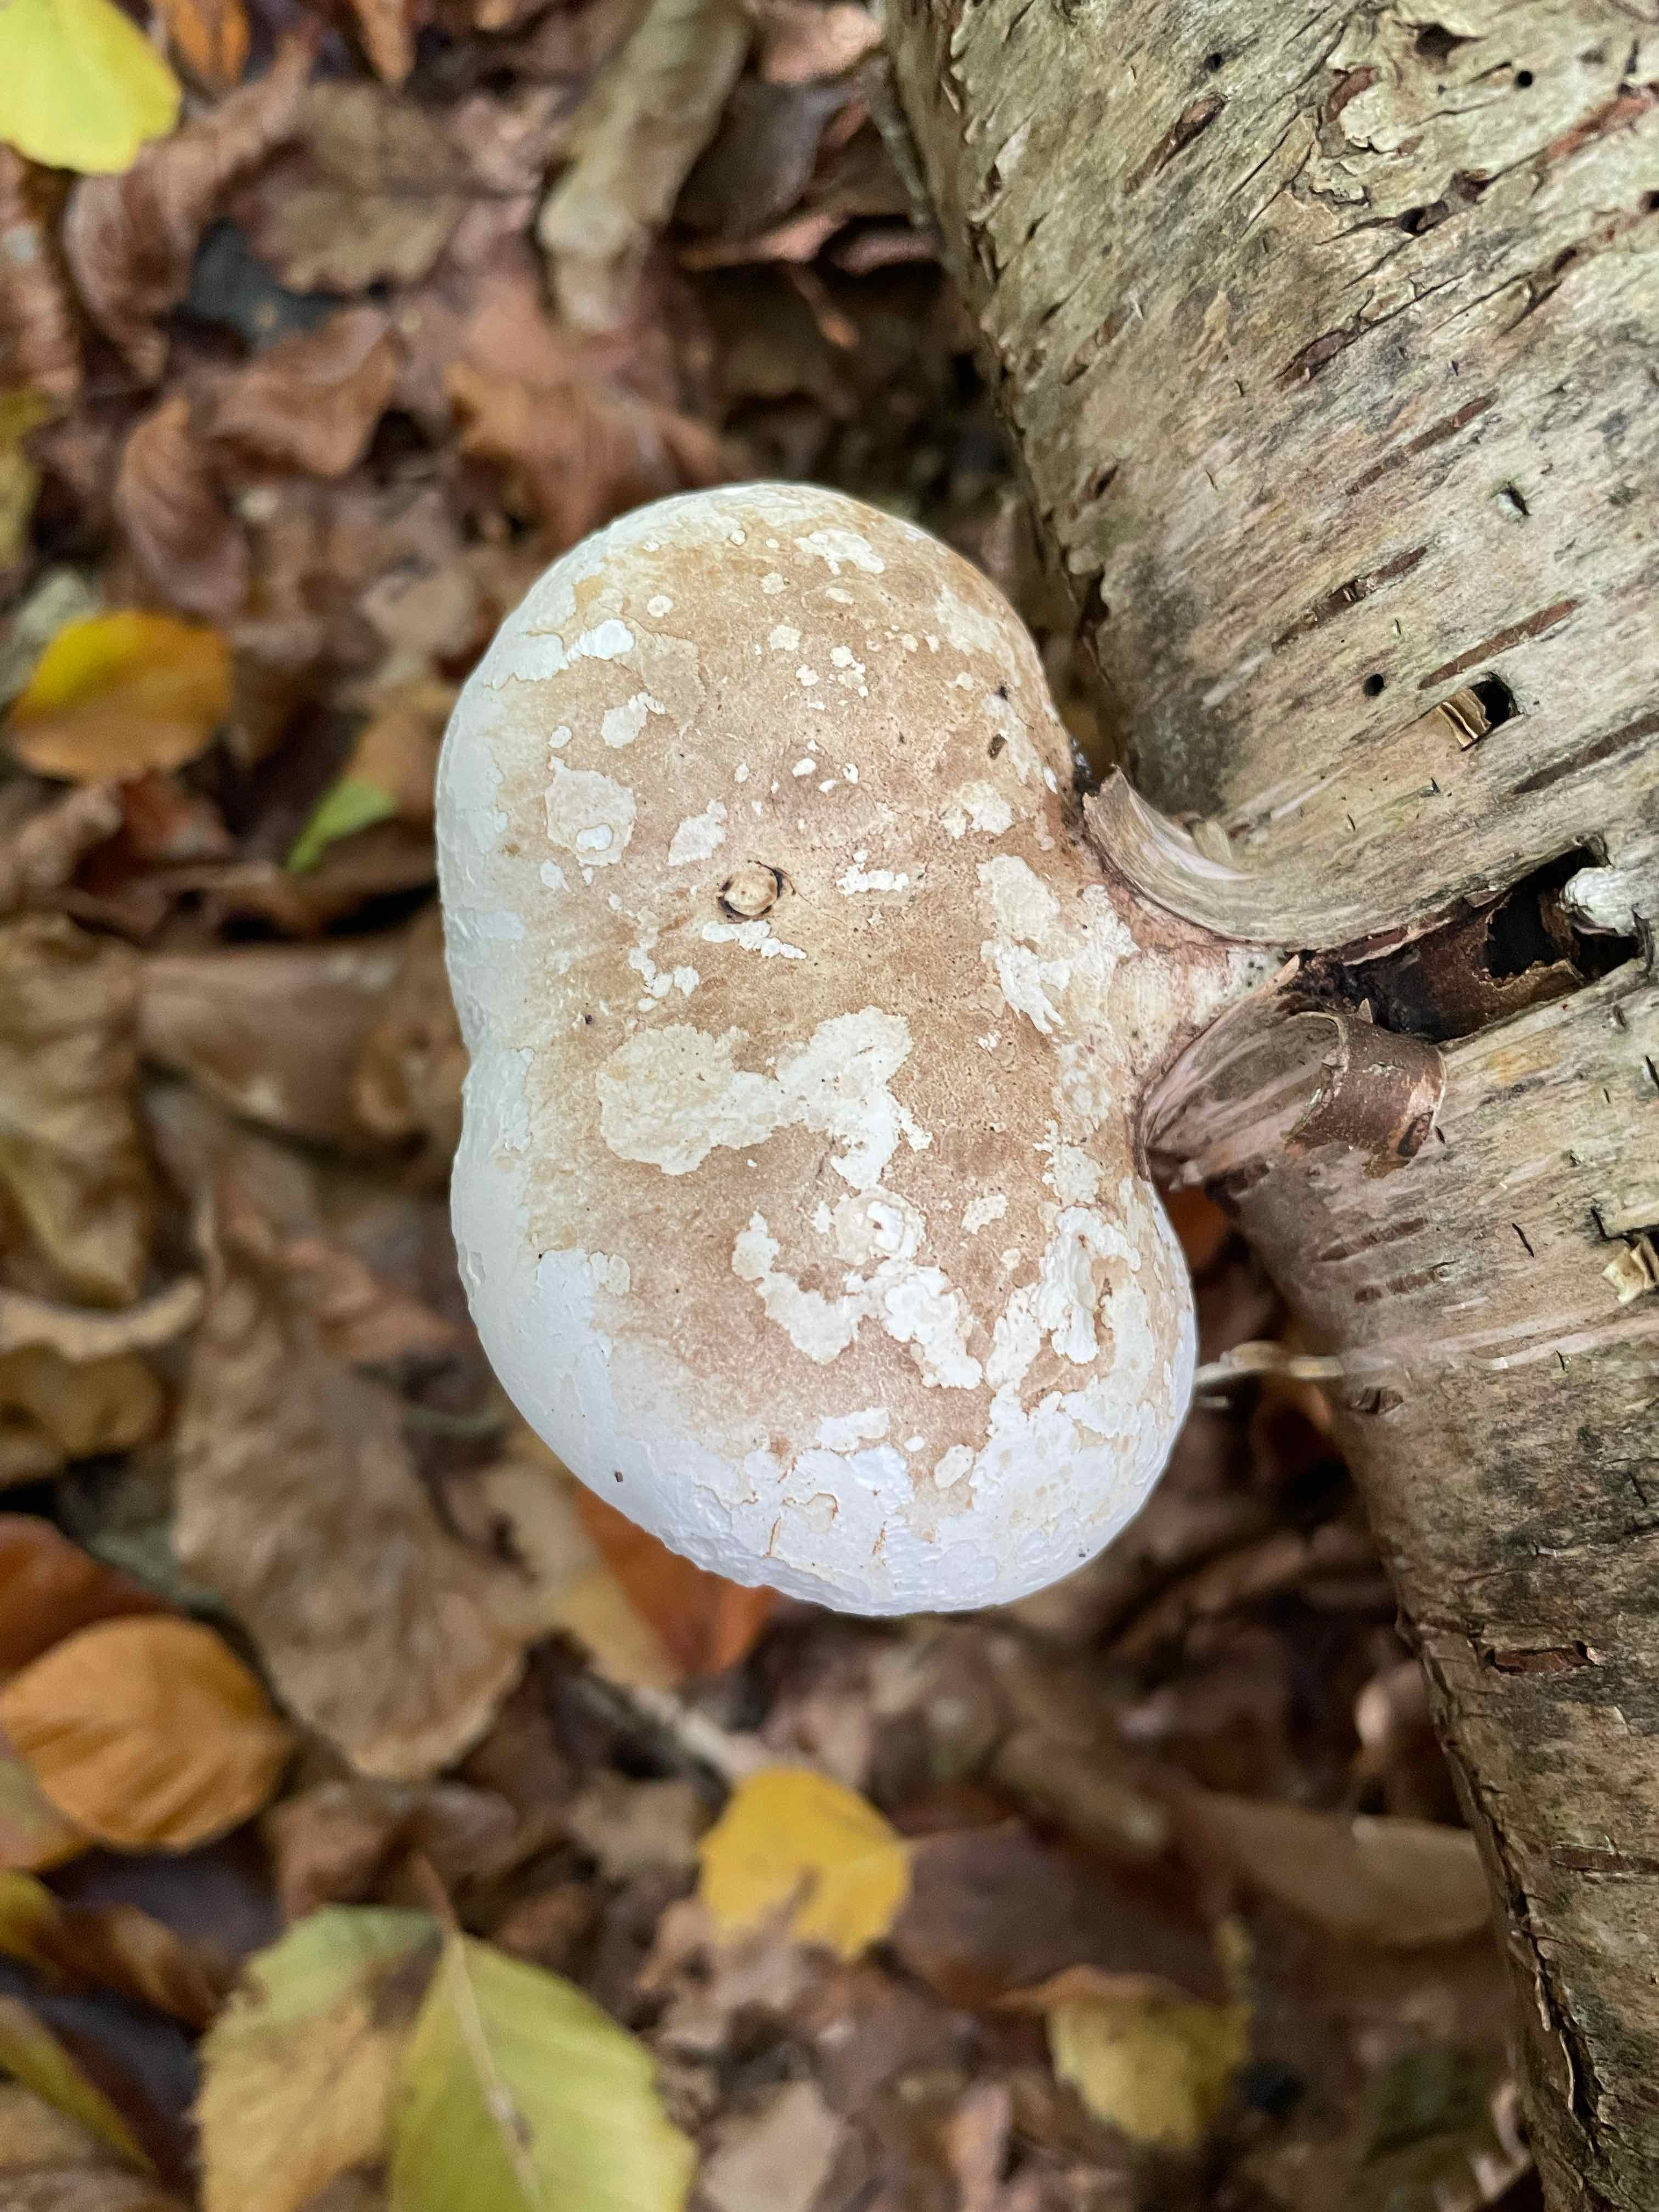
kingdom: Fungi
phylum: Basidiomycota
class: Agaricomycetes
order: Polyporales
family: Fomitopsidaceae
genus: Fomitopsis
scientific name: Fomitopsis betulina
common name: birkeporesvamp
